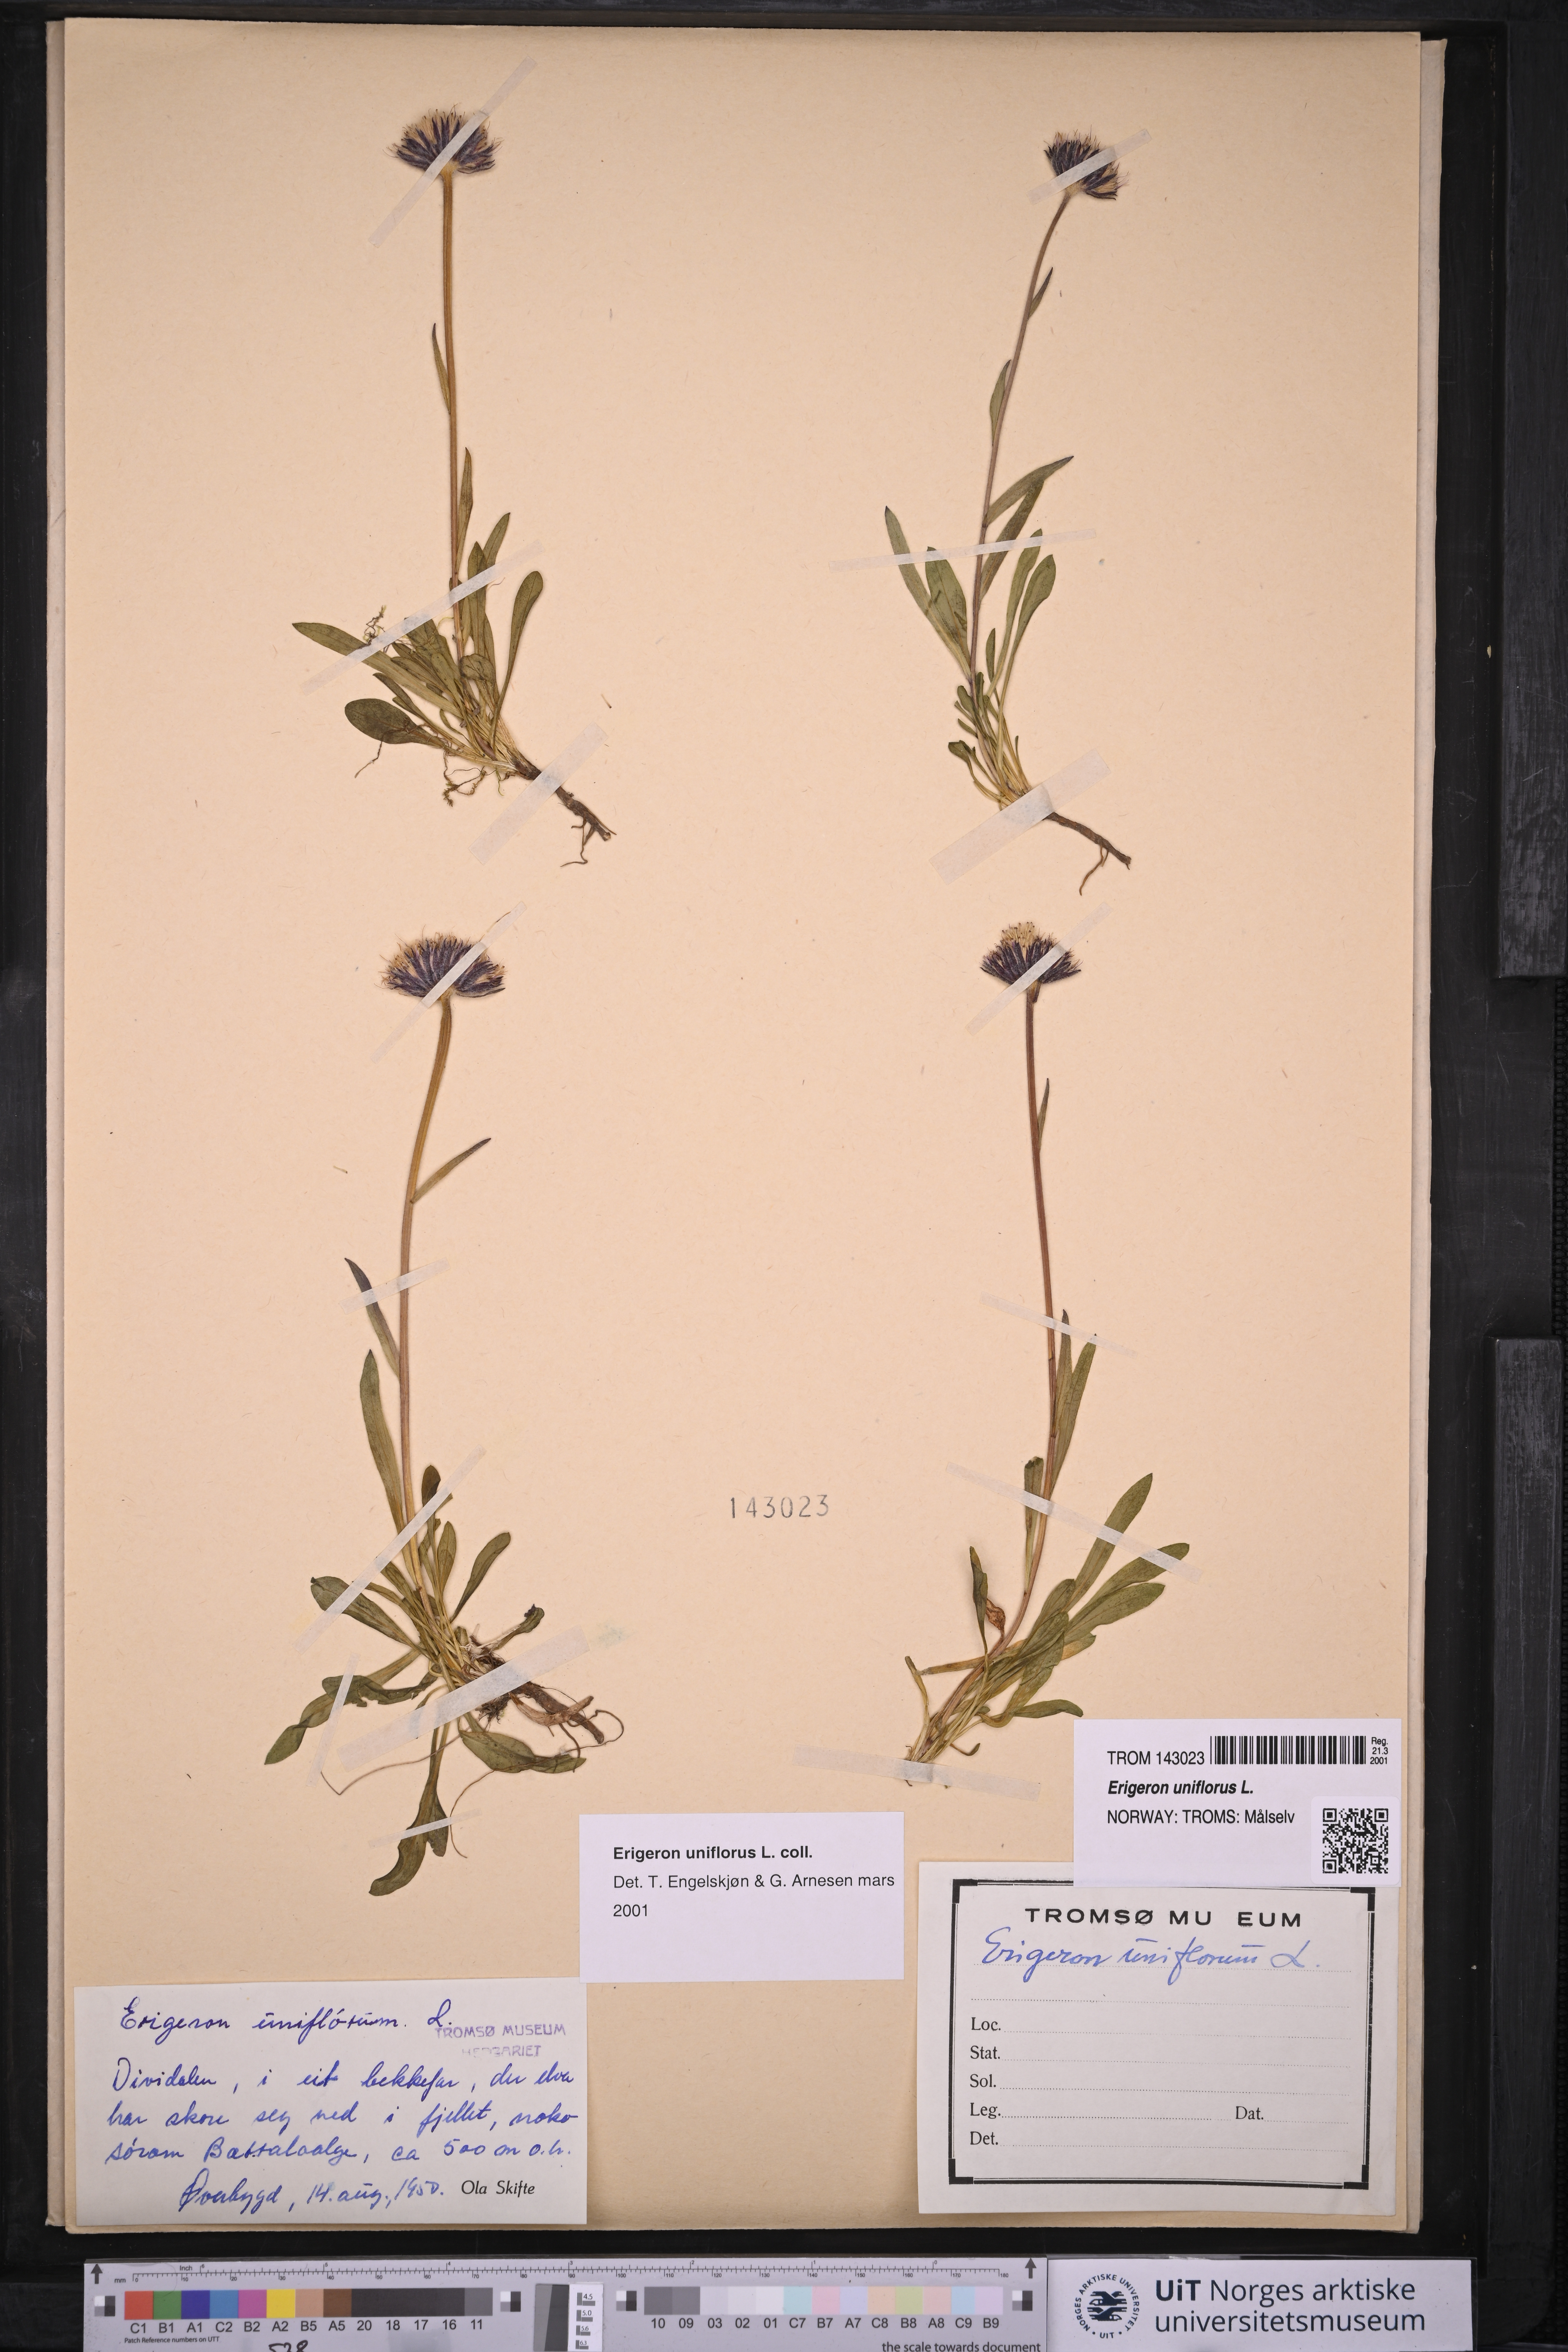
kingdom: Plantae
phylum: Tracheophyta
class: Magnoliopsida
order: Asterales
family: Asteraceae
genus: Erigeron
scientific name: Erigeron uniflorus
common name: Northern daisy
